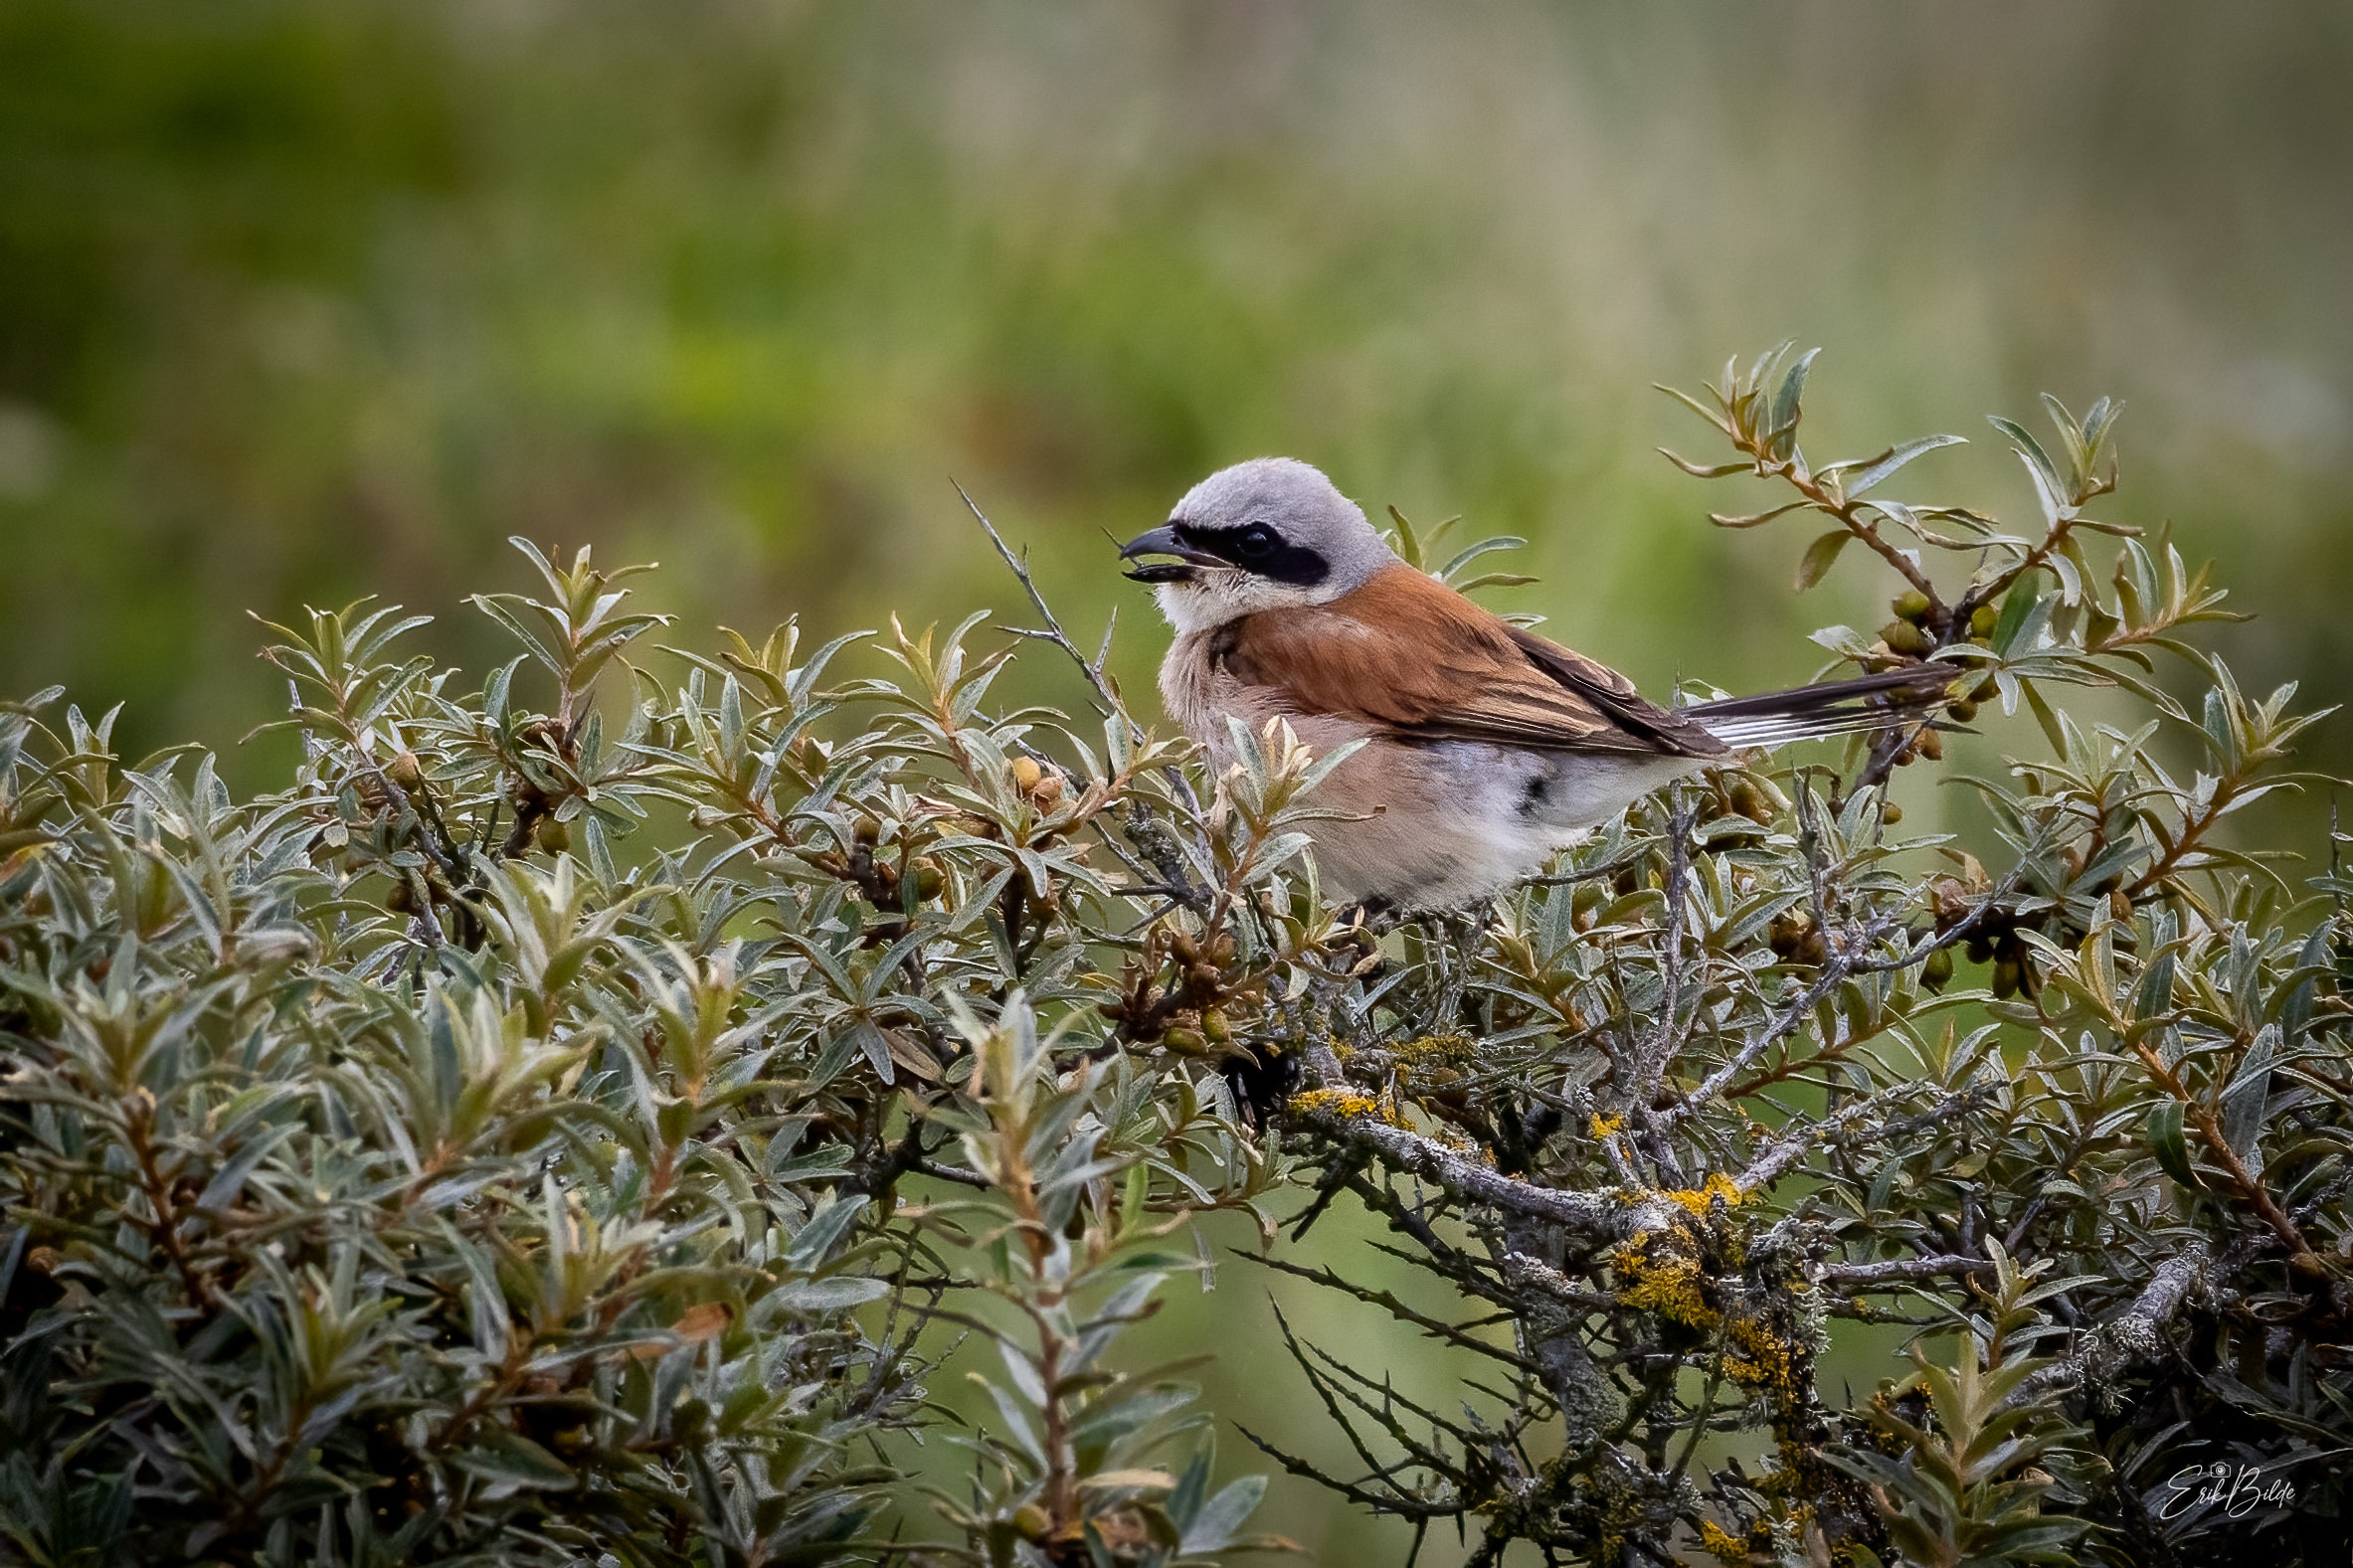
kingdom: Animalia
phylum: Chordata
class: Aves
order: Passeriformes
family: Laniidae
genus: Lanius
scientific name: Lanius collurio
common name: Rødrygget tornskade
